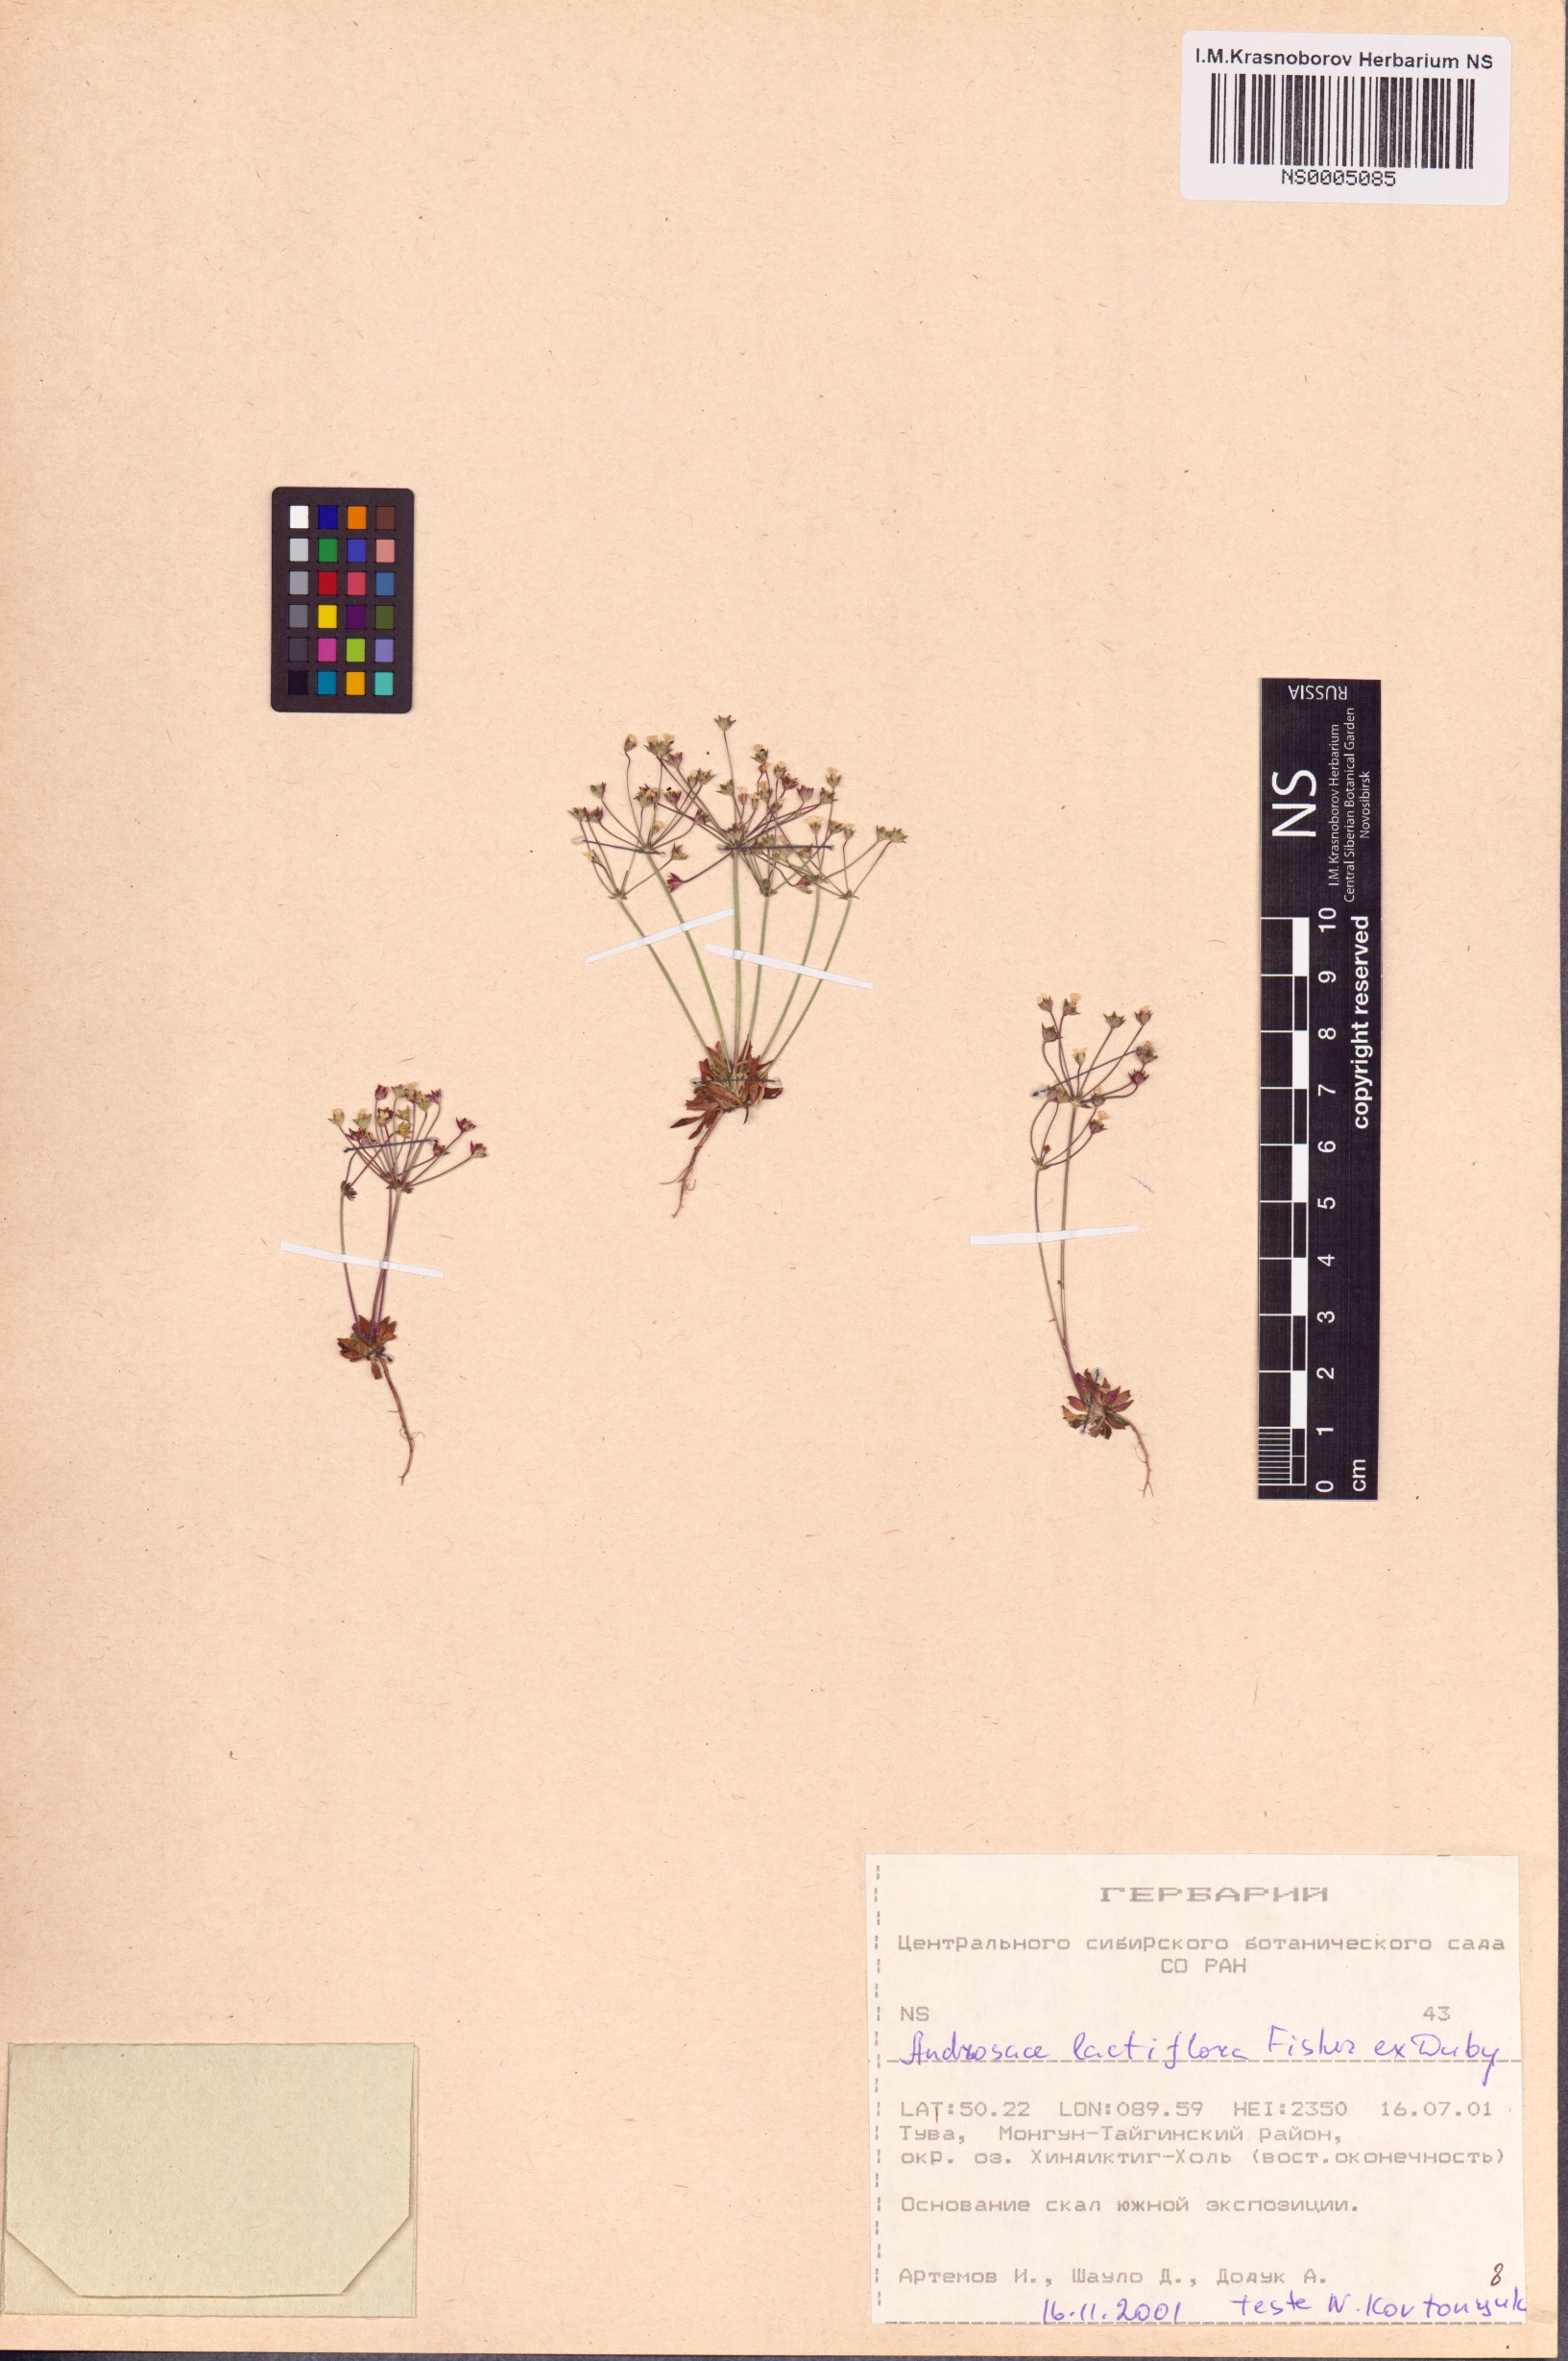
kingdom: Plantae
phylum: Tracheophyta
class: Magnoliopsida
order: Ericales
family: Primulaceae
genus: Androsace
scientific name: Androsace lactiflora
